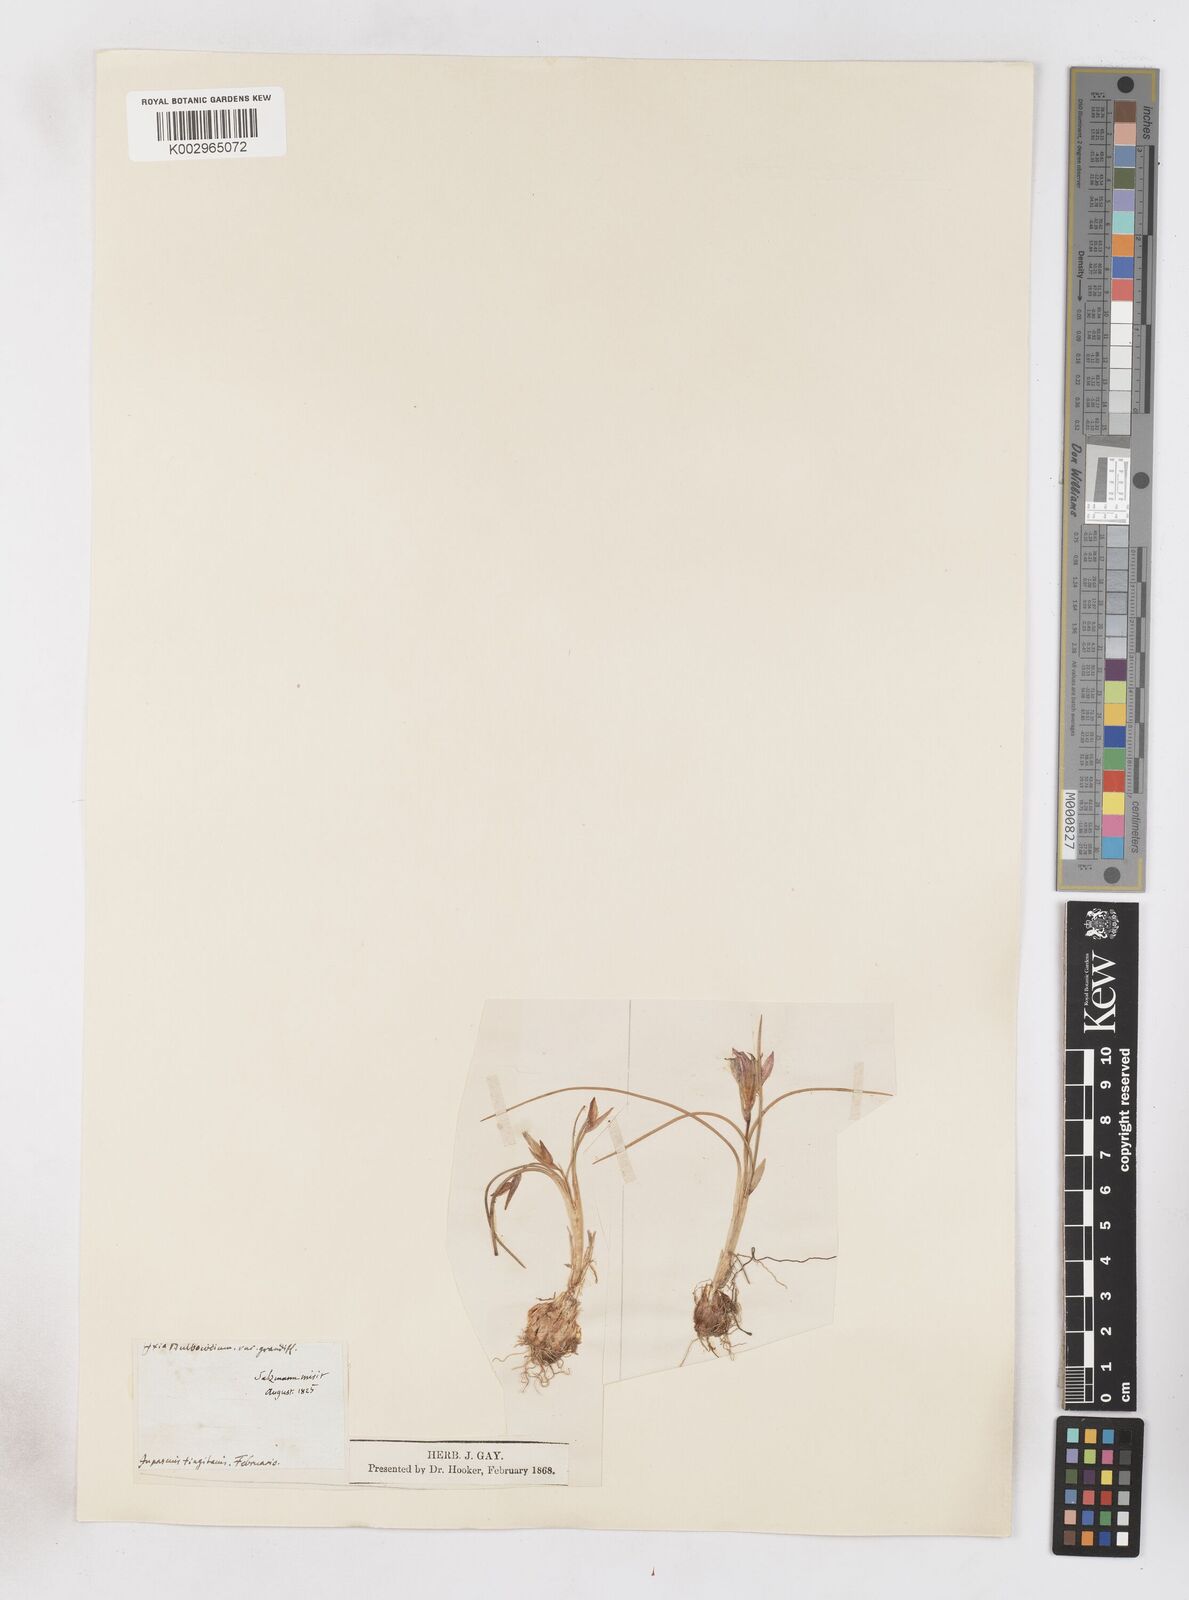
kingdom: Plantae
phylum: Tracheophyta
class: Liliopsida
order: Asparagales
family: Iridaceae
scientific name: Iridaceae
